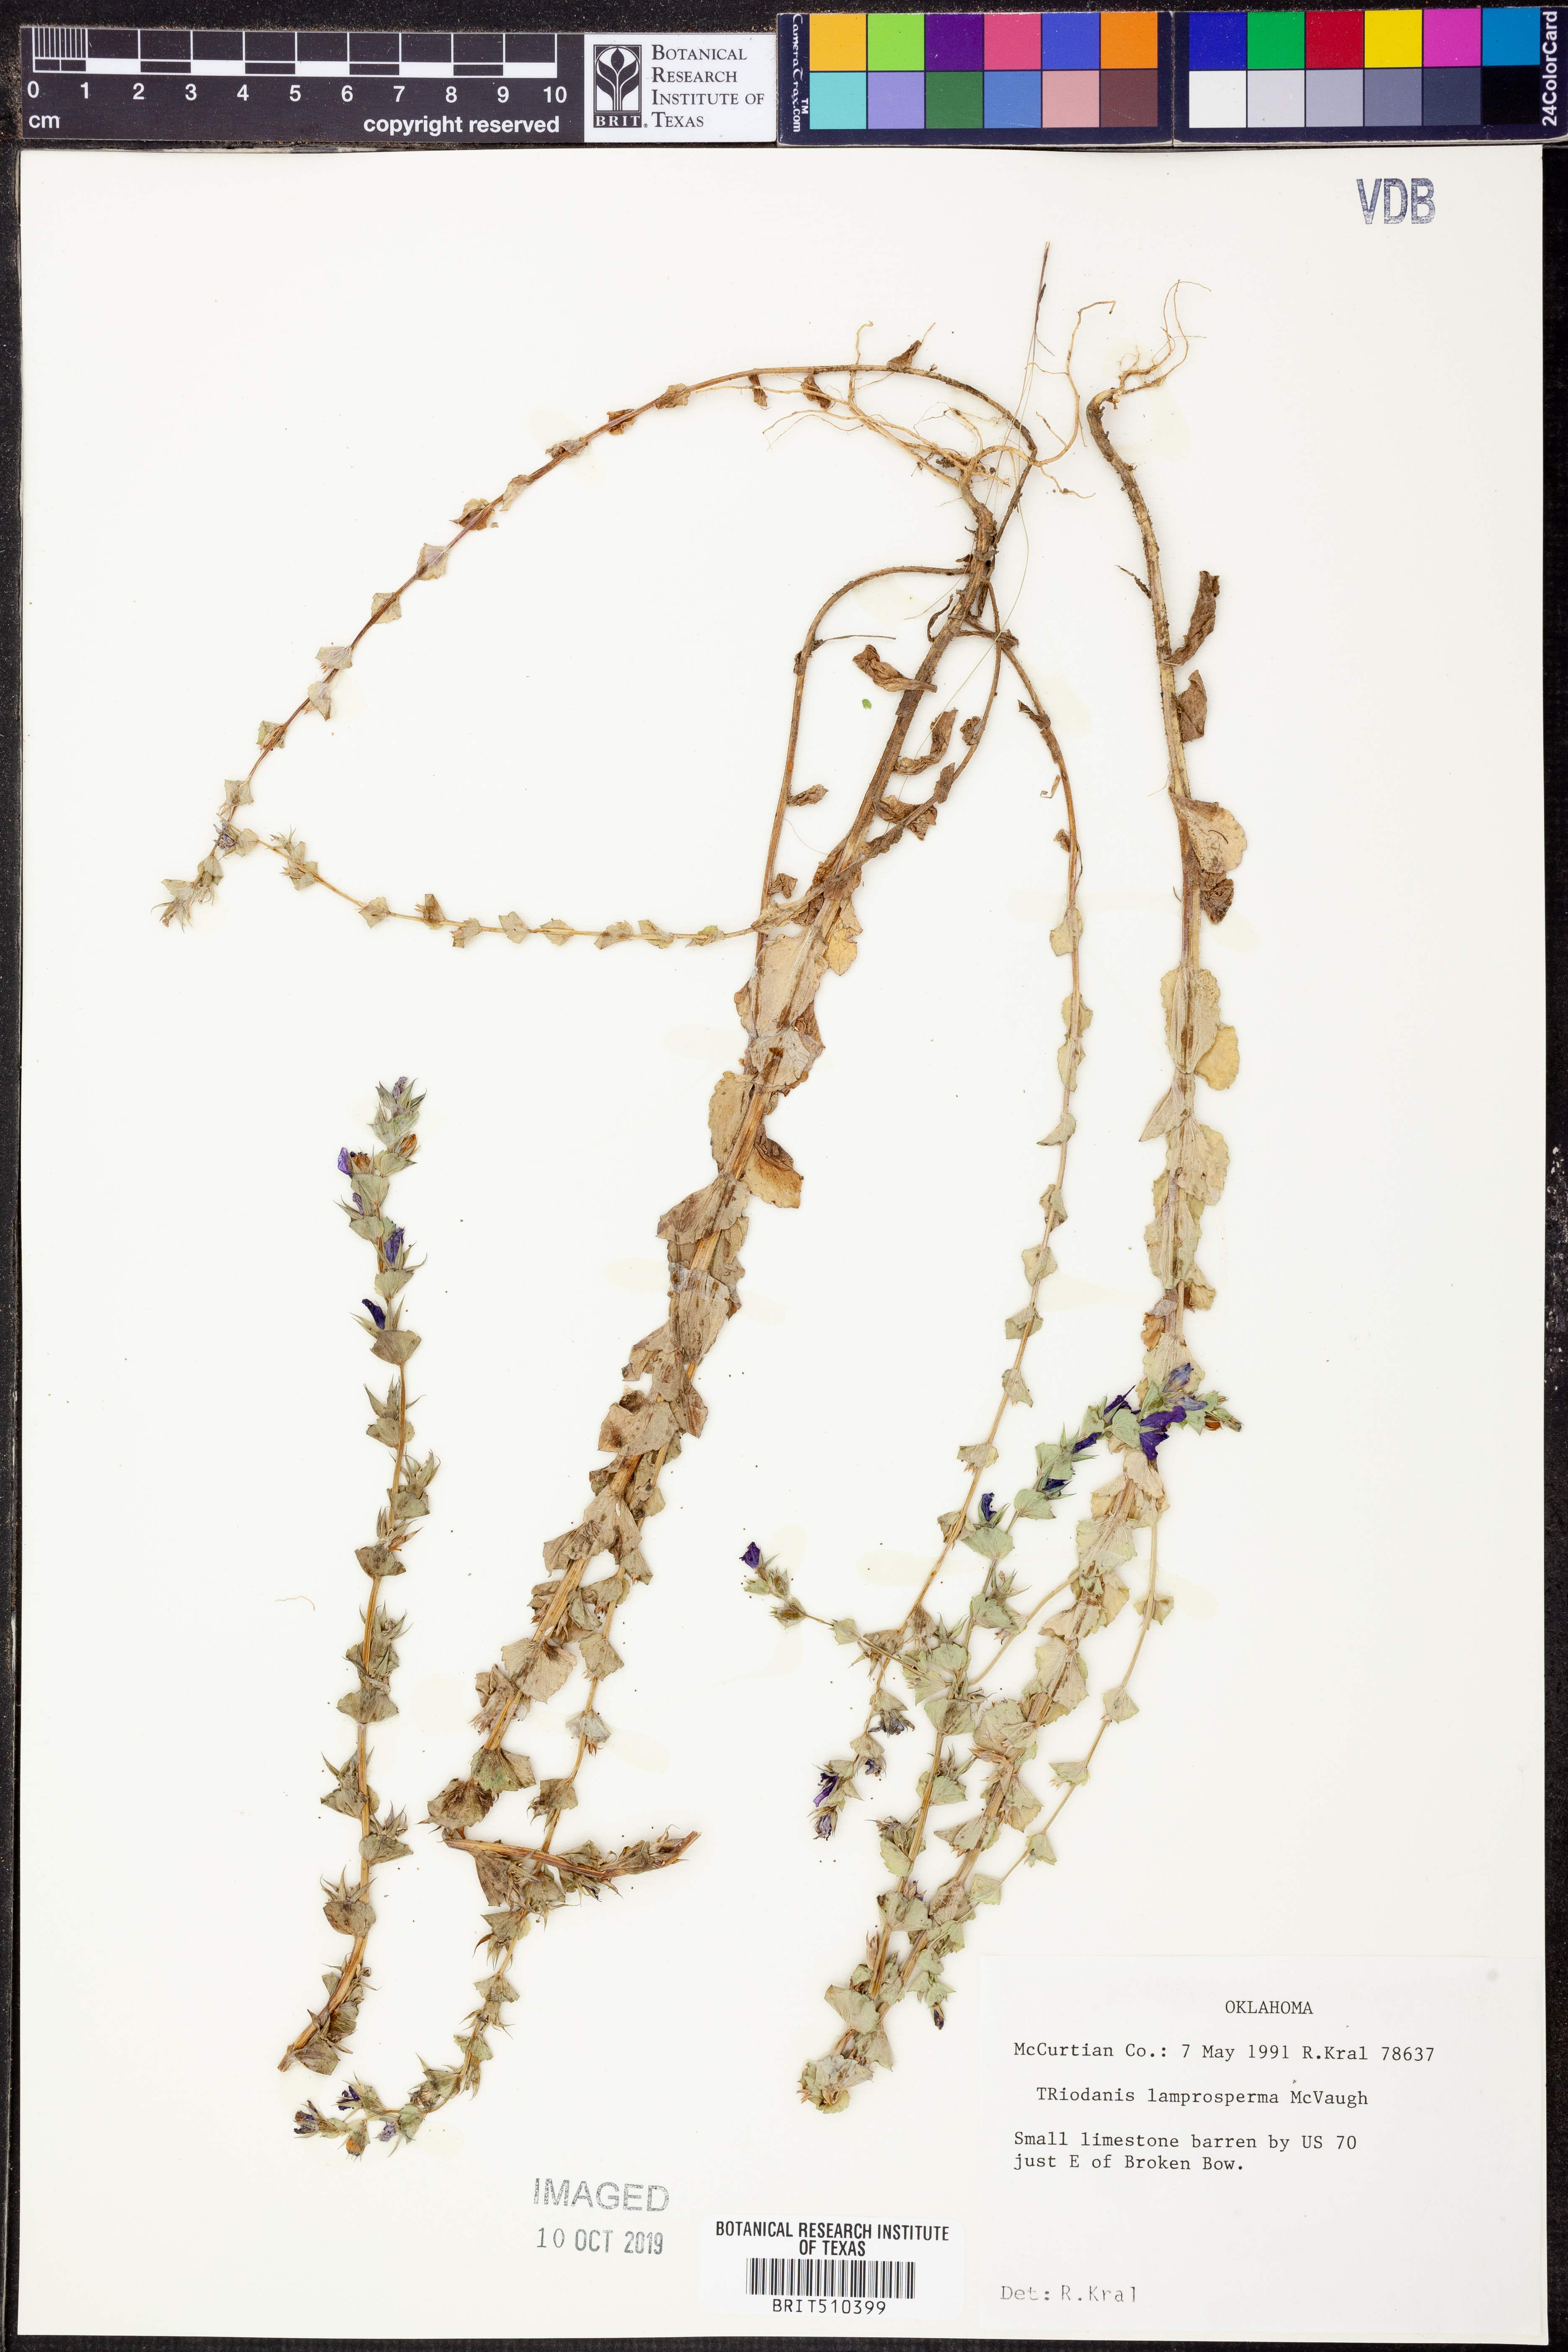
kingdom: Plantae
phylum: Tracheophyta
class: Magnoliopsida
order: Asterales
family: Campanulaceae
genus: Triodanis
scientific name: Triodanis lamprosperma
